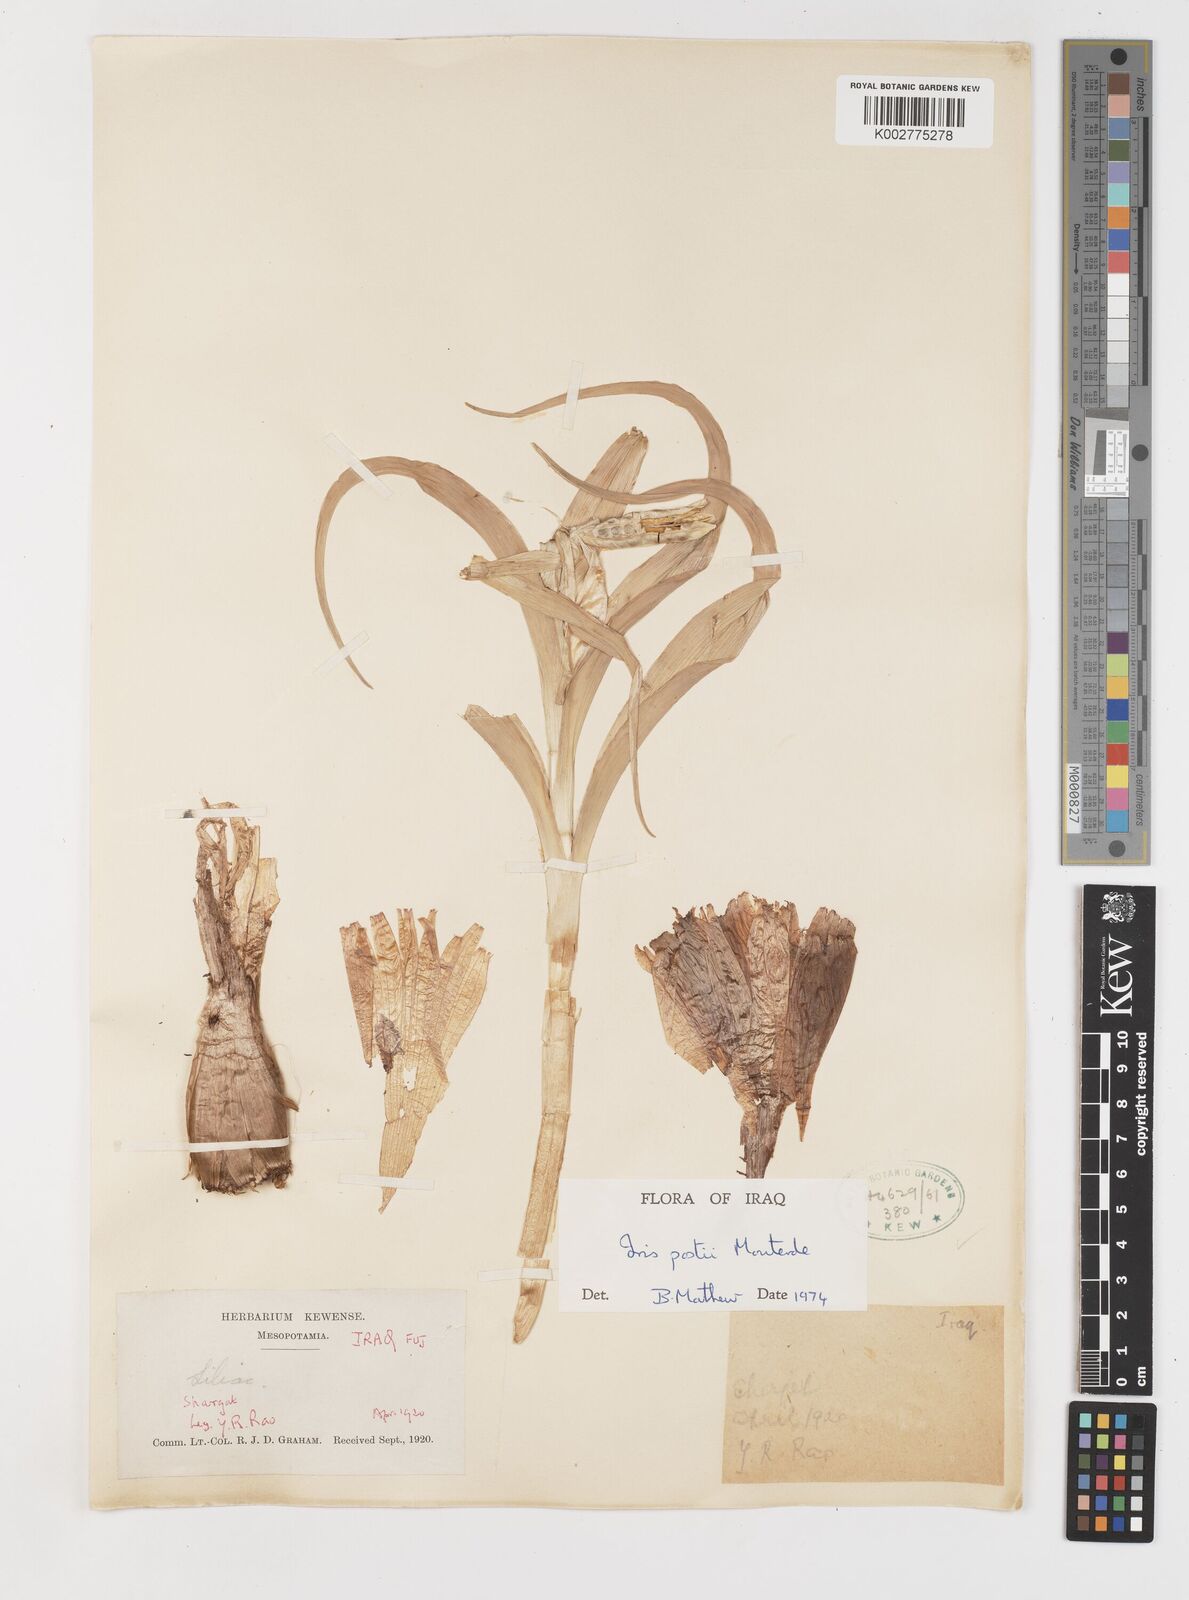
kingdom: Plantae
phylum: Tracheophyta
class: Liliopsida
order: Asparagales
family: Iridaceae
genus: Iris
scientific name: Iris postii
